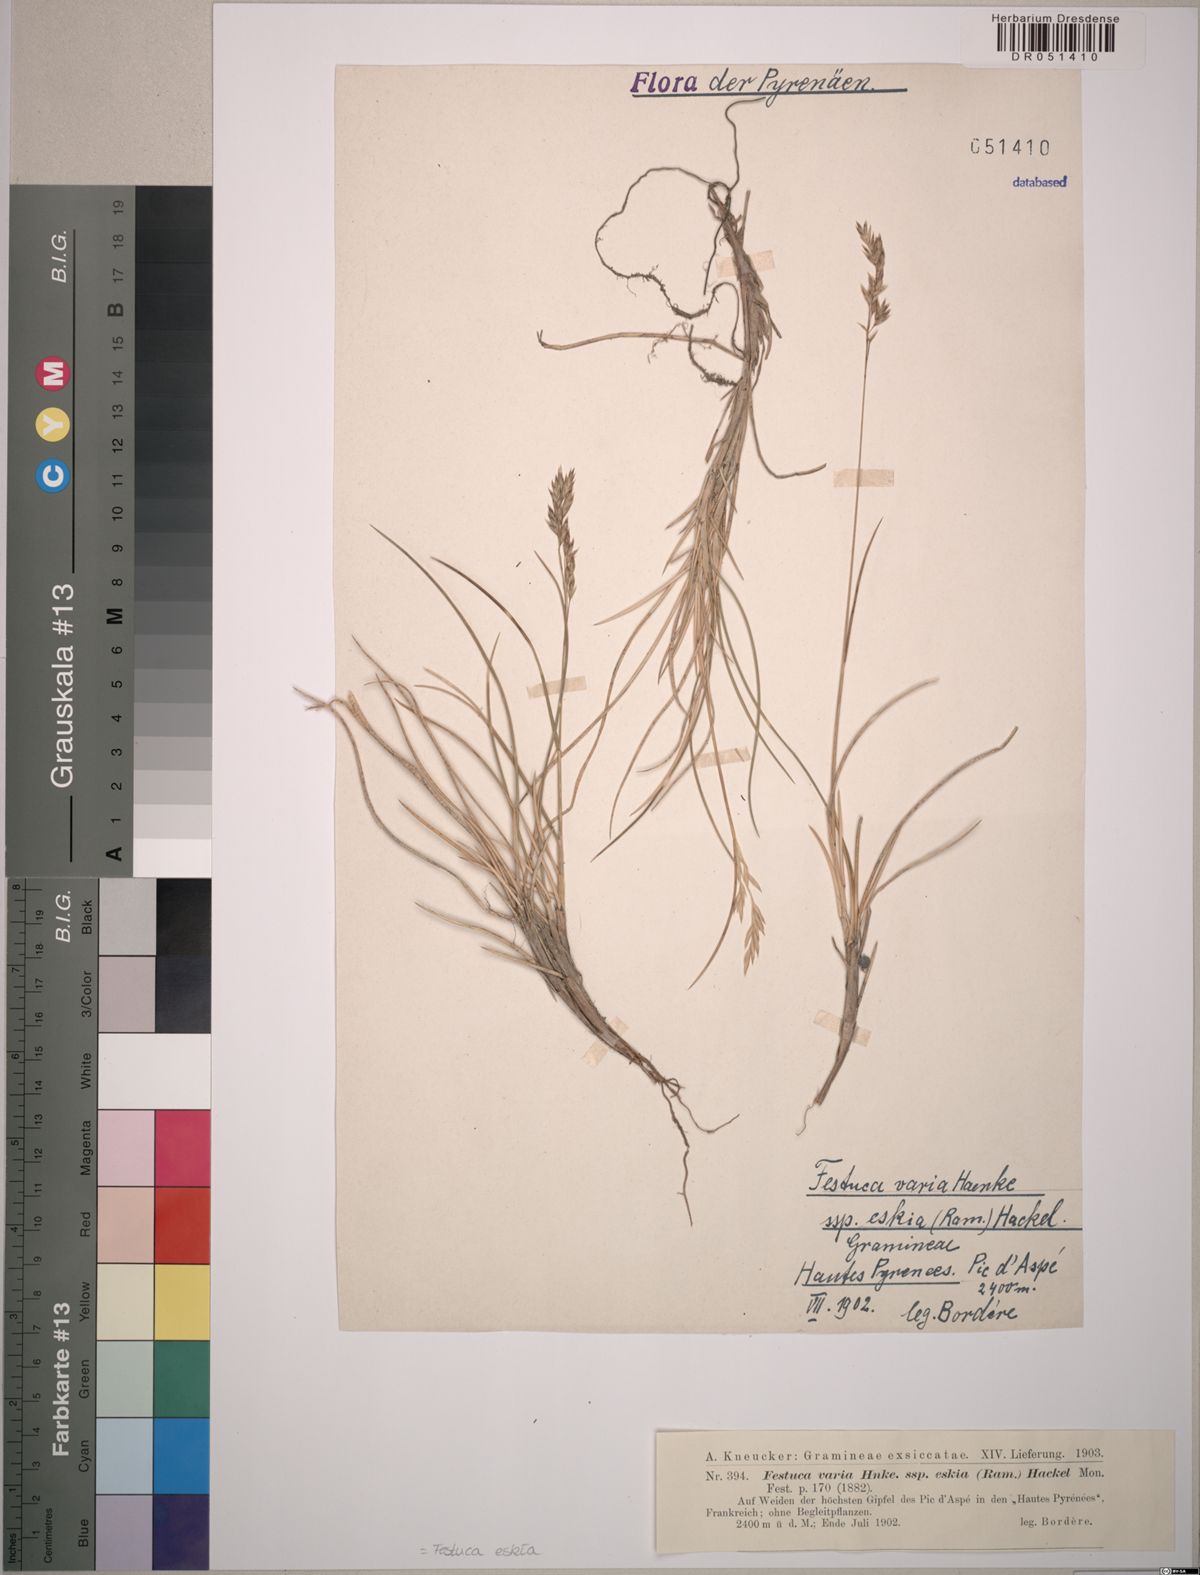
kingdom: Plantae
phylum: Tracheophyta
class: Liliopsida
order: Poales
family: Poaceae
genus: Festuca
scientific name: Festuca eskia
